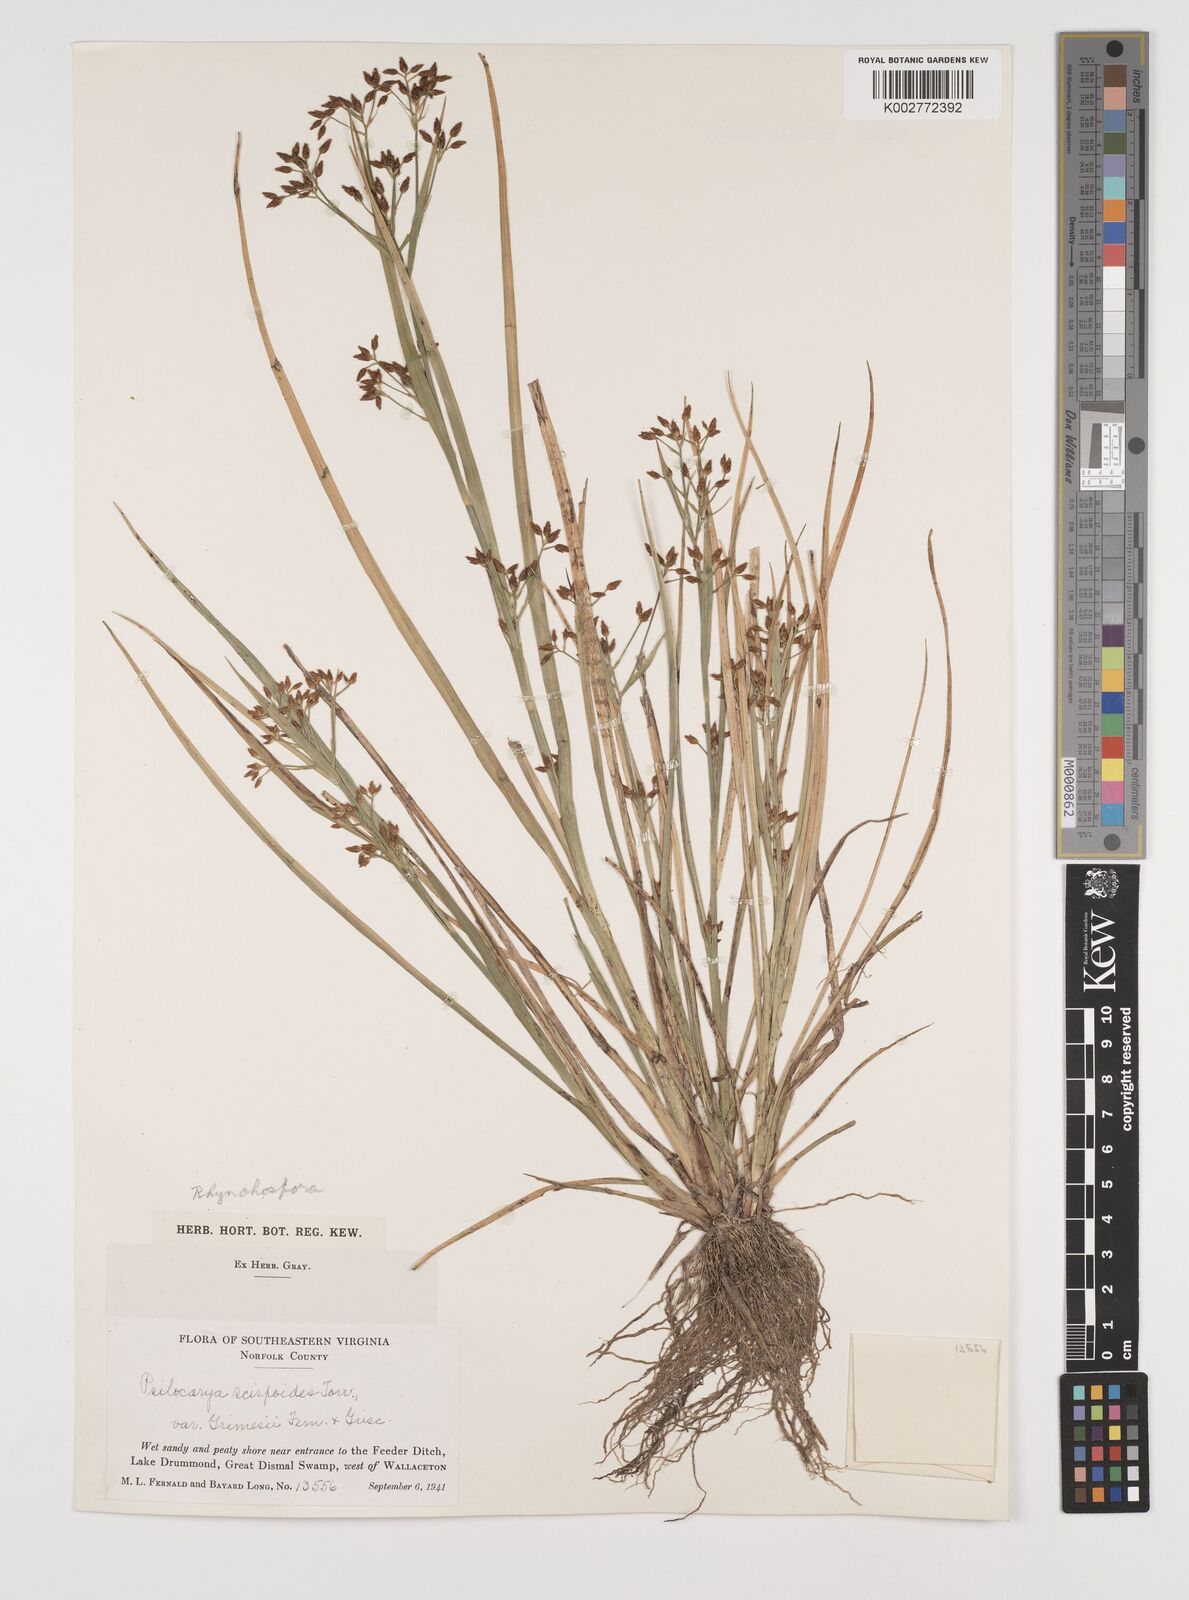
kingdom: Plantae
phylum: Tracheophyta
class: Liliopsida
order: Poales
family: Cyperaceae
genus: Rhynchospora
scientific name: Rhynchospora scirpoides
